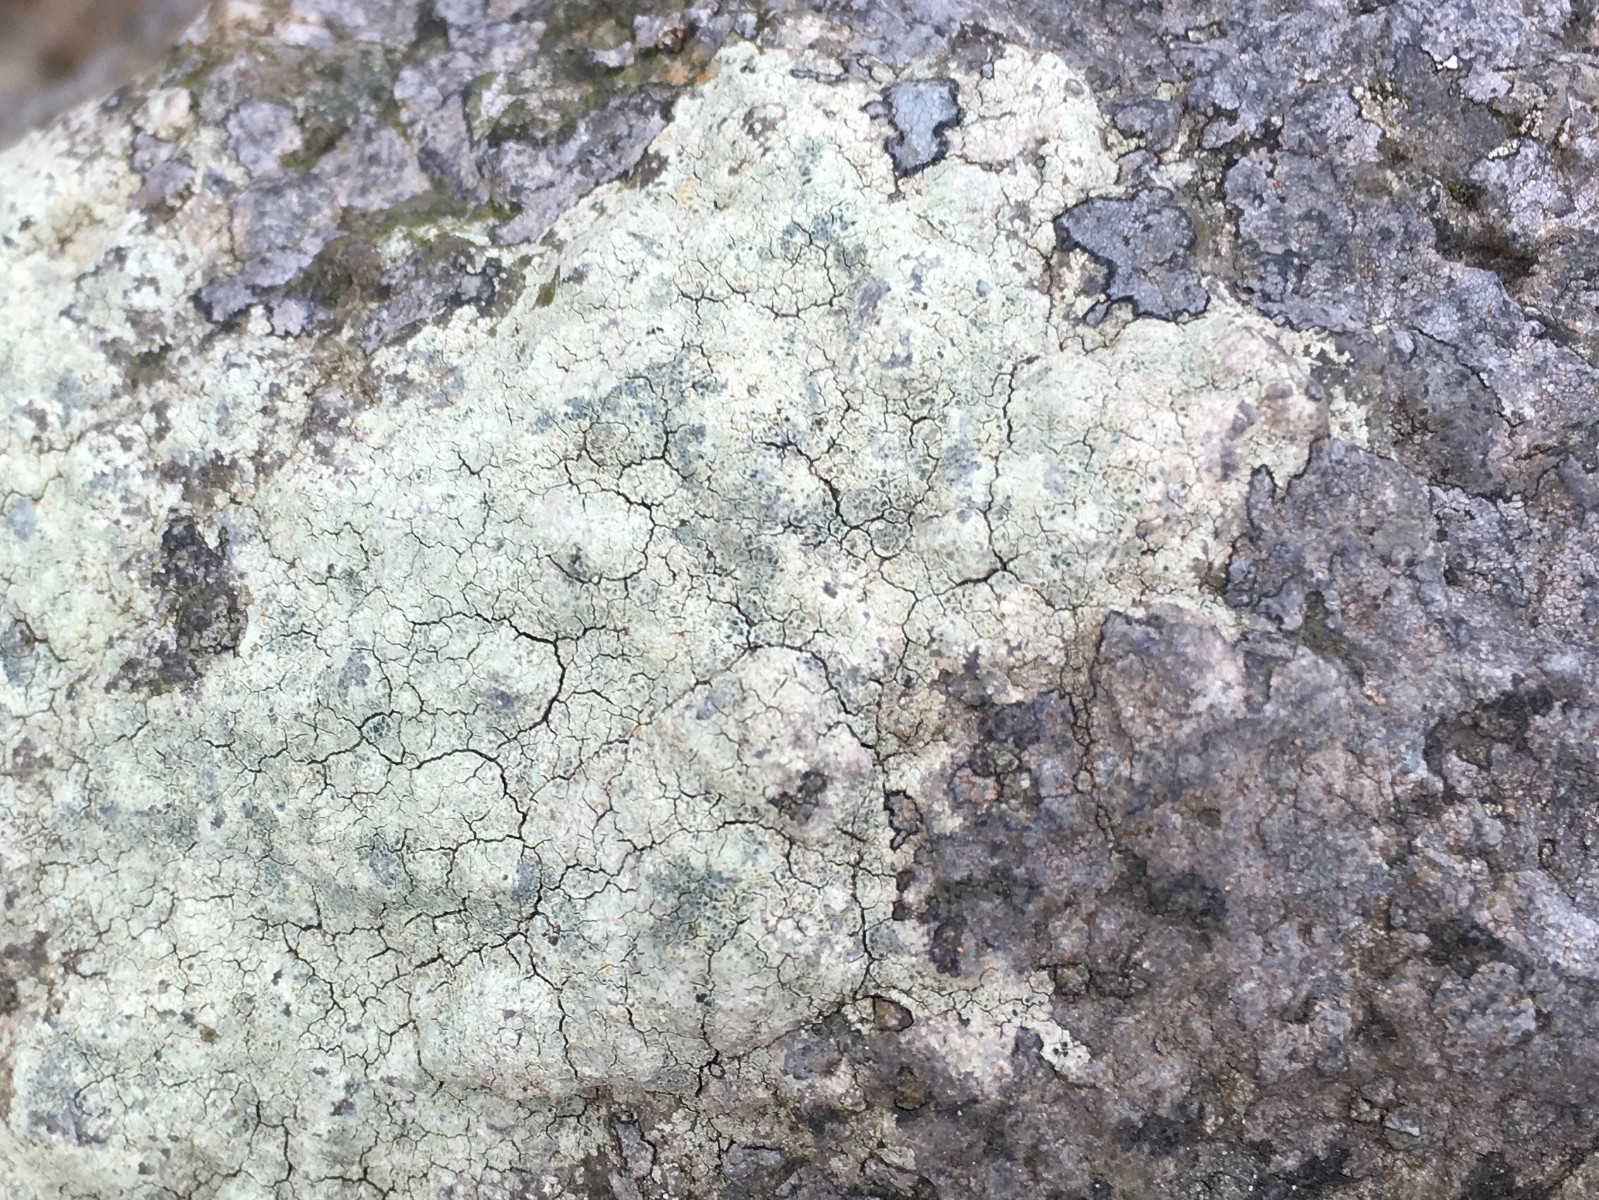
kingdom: Fungi
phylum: Ascomycota
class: Lecanoromycetes
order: Lecanorales
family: Lecanoraceae
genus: Glaucomaria
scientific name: Glaucomaria sulphurea
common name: svovlgul kantskivelav
